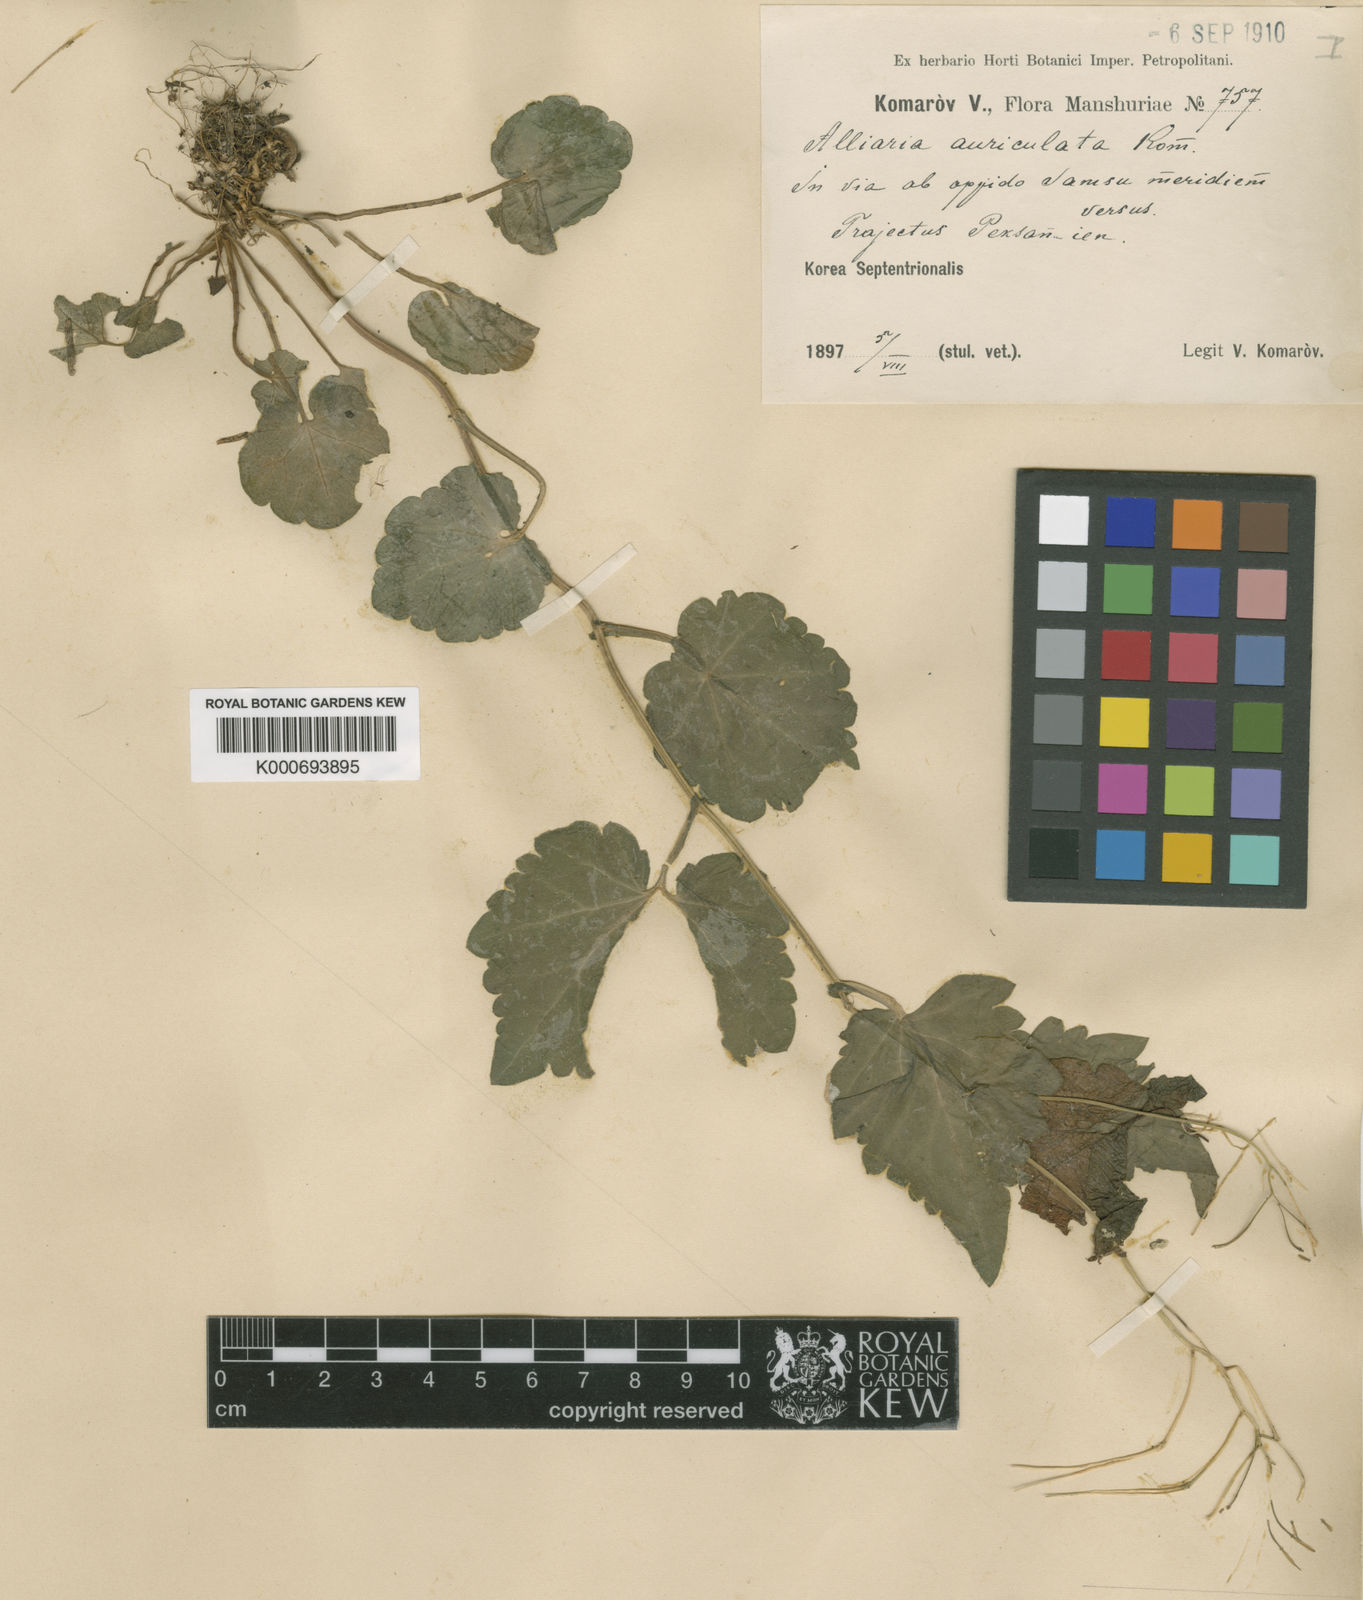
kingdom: Plantae
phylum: Tracheophyta
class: Magnoliopsida
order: Brassicales
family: Brassicaceae
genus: Cardamine
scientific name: Cardamine komarovii
